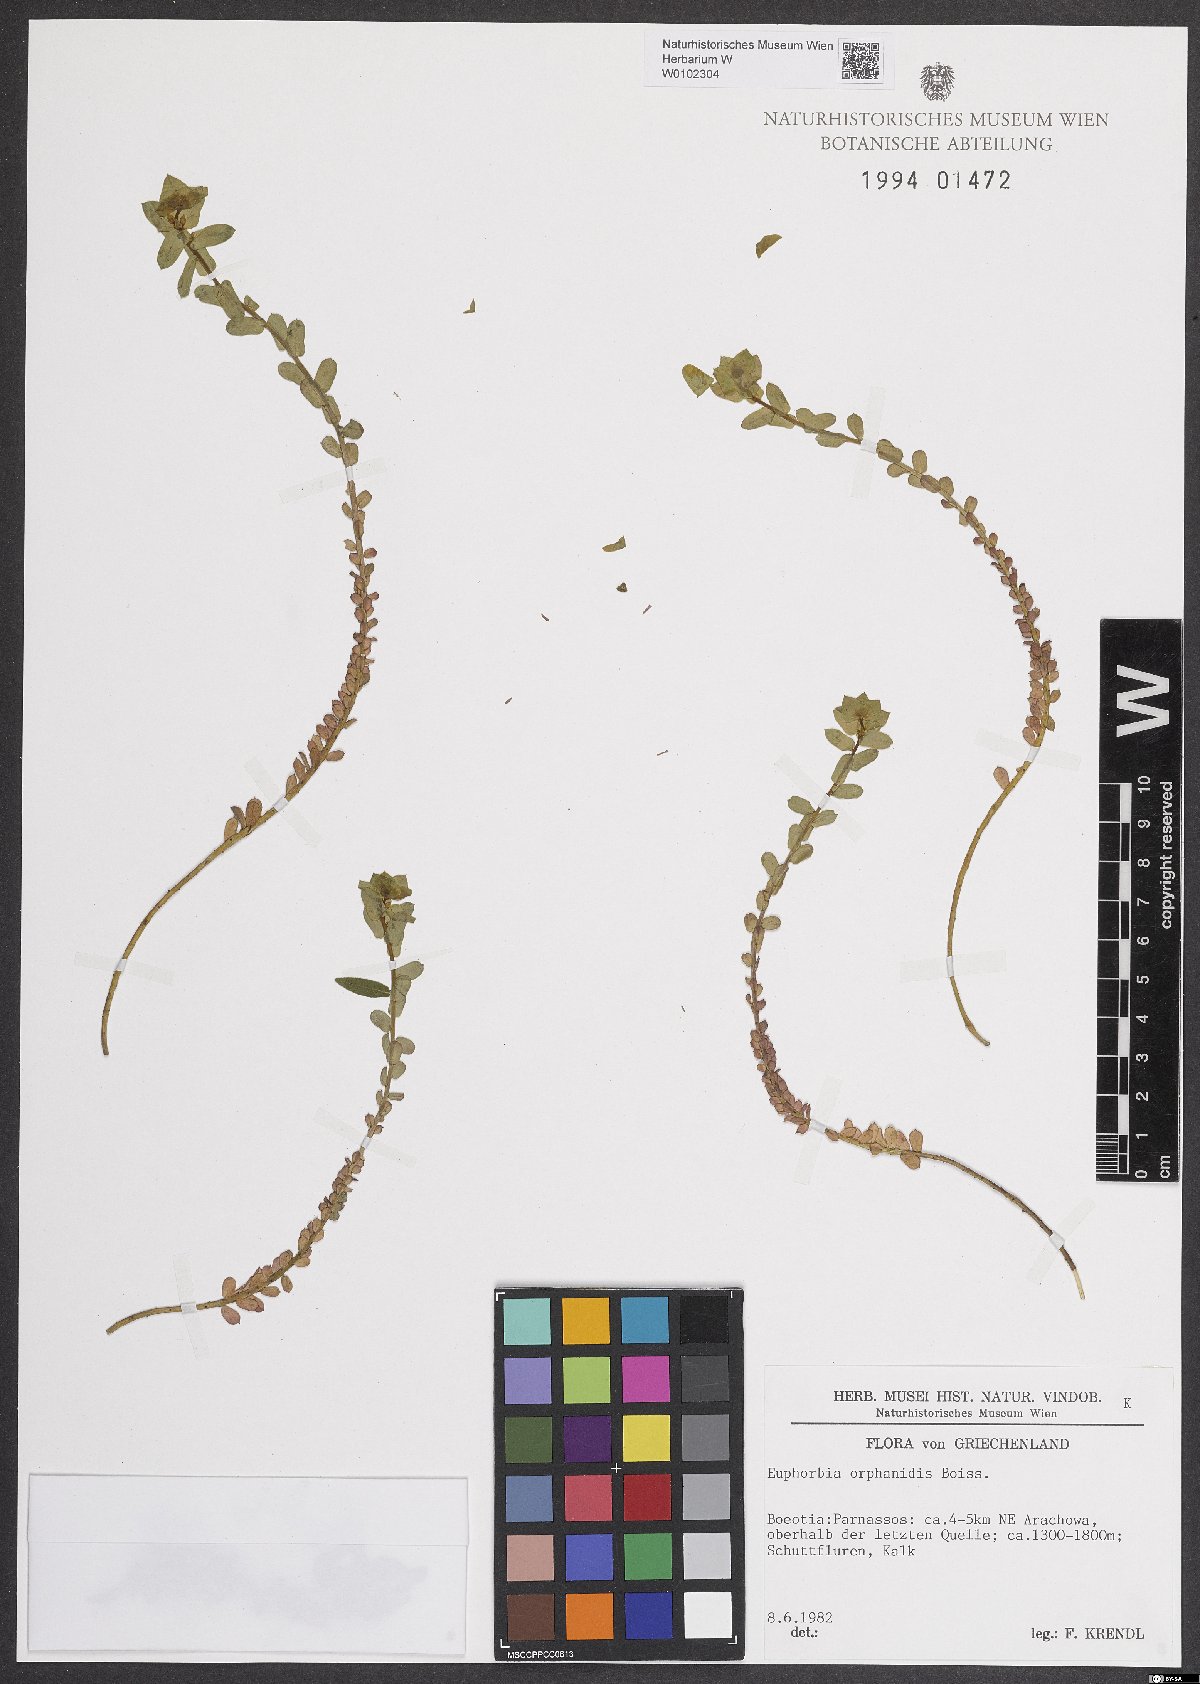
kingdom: Plantae
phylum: Tracheophyta
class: Magnoliopsida
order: Malpighiales
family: Euphorbiaceae
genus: Euphorbia
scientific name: Euphorbia deflexa
